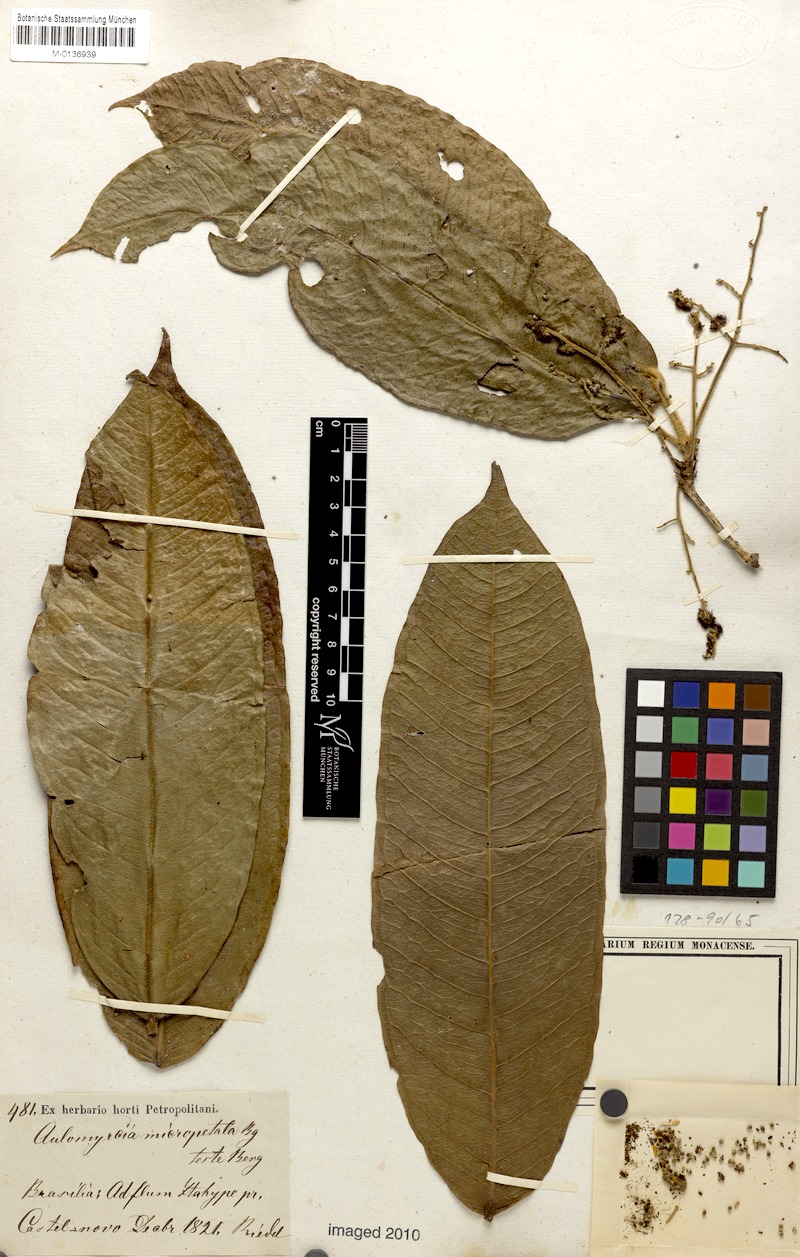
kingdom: Plantae
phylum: Tracheophyta
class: Magnoliopsida
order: Myrtales
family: Myrtaceae
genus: Myrcia
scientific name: Myrcia micropetala
